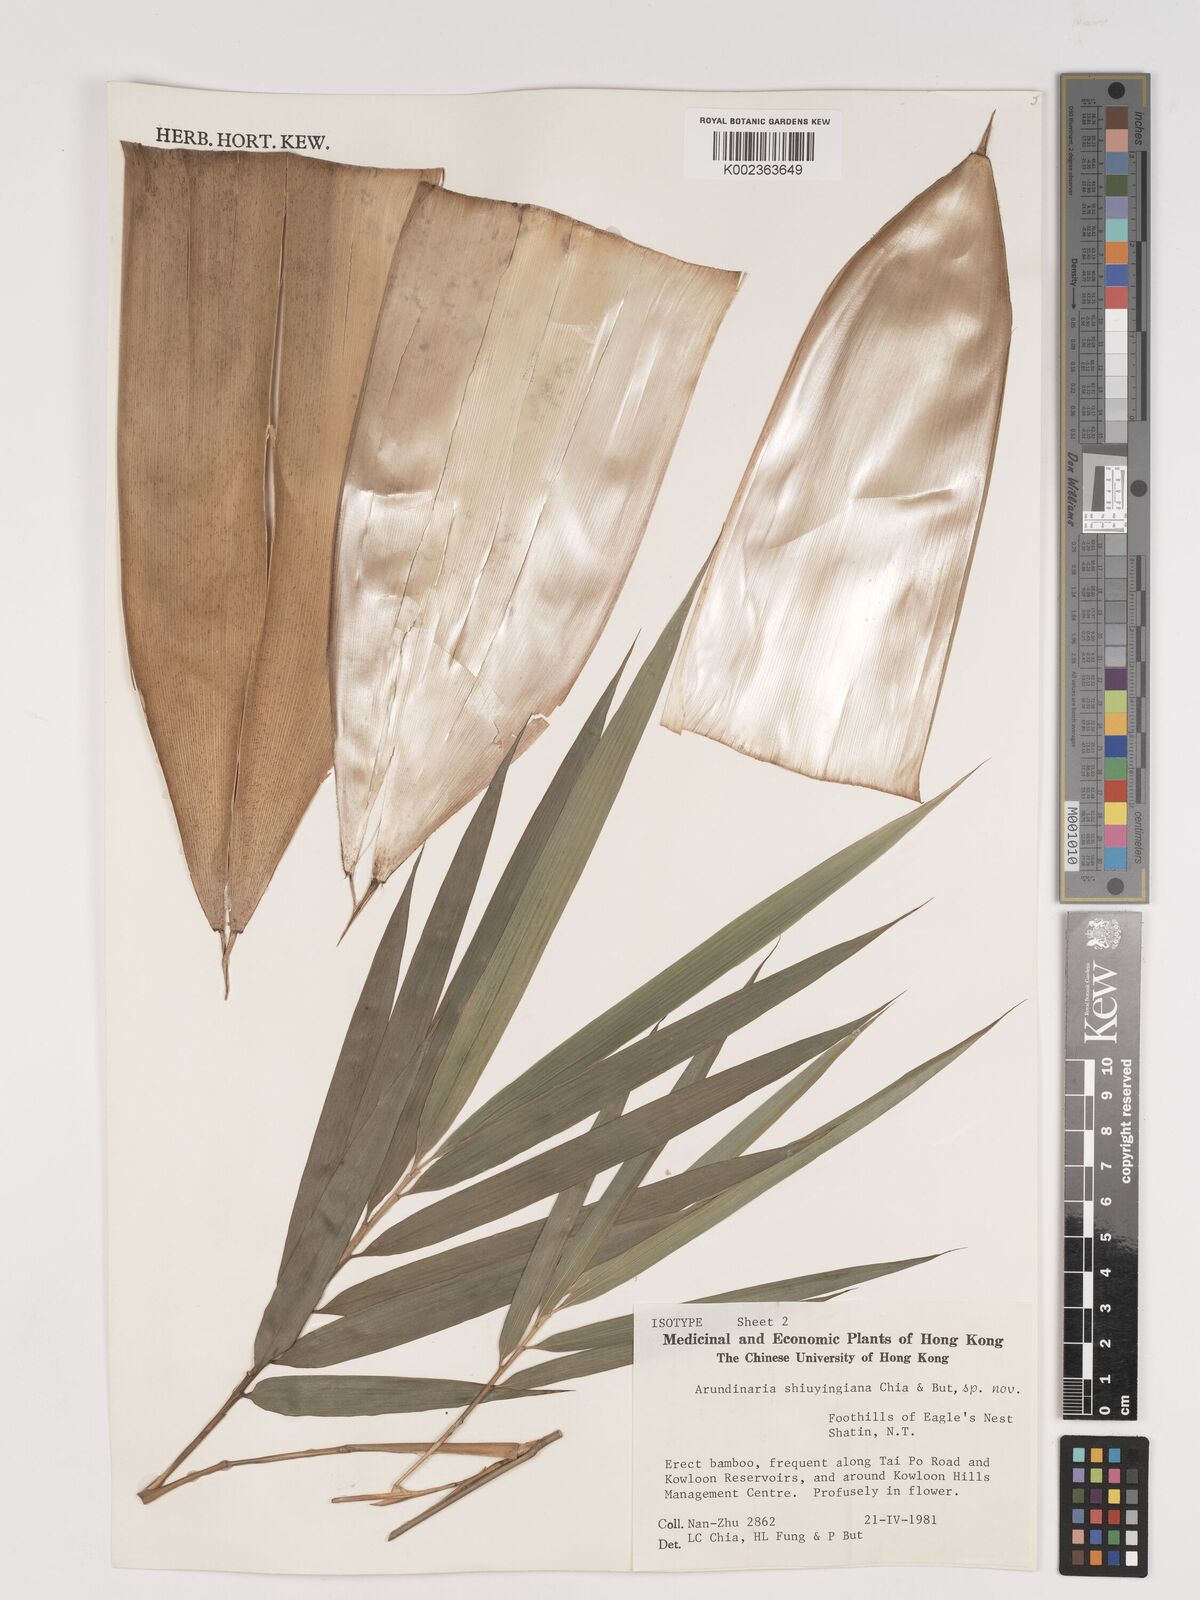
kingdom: Plantae
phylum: Tracheophyta
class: Liliopsida
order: Poales
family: Poaceae
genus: Oligostachyum
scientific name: Oligostachyum shiuyingianum
